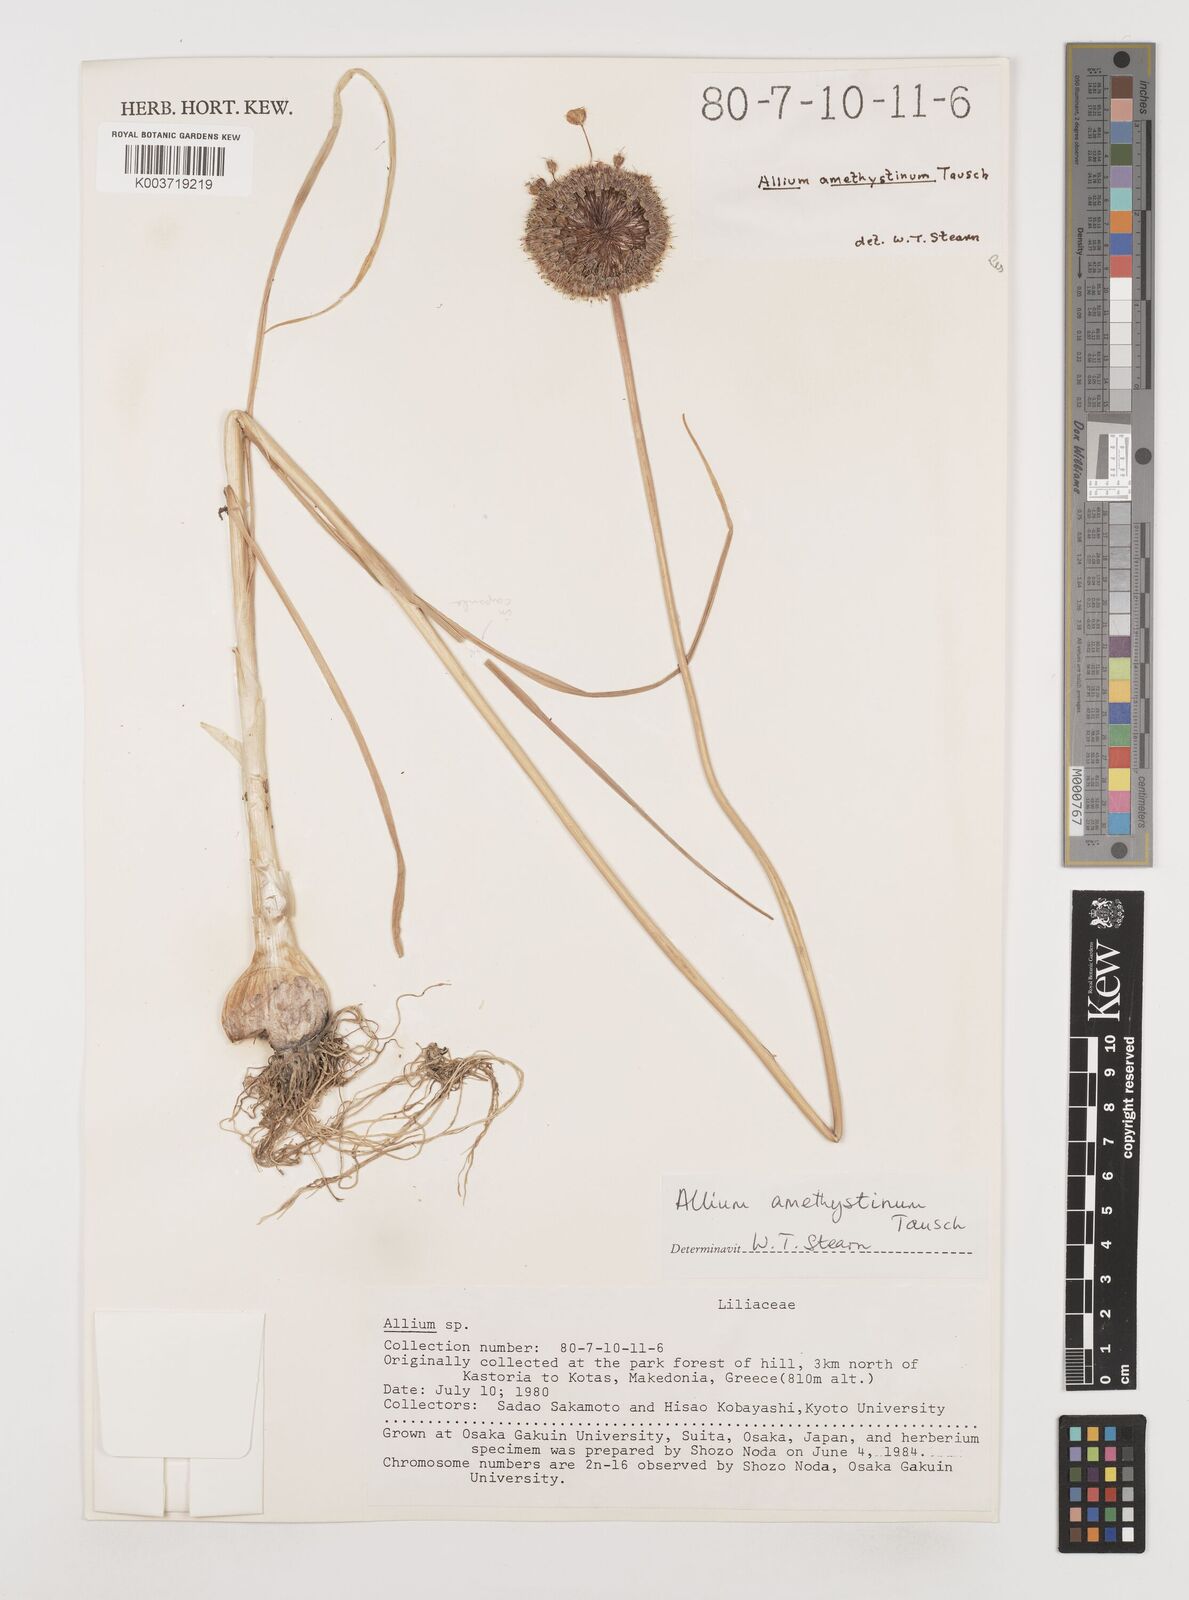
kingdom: Plantae
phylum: Tracheophyta
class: Liliopsida
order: Asparagales
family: Amaryllidaceae
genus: Allium
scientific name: Allium amethystinum
